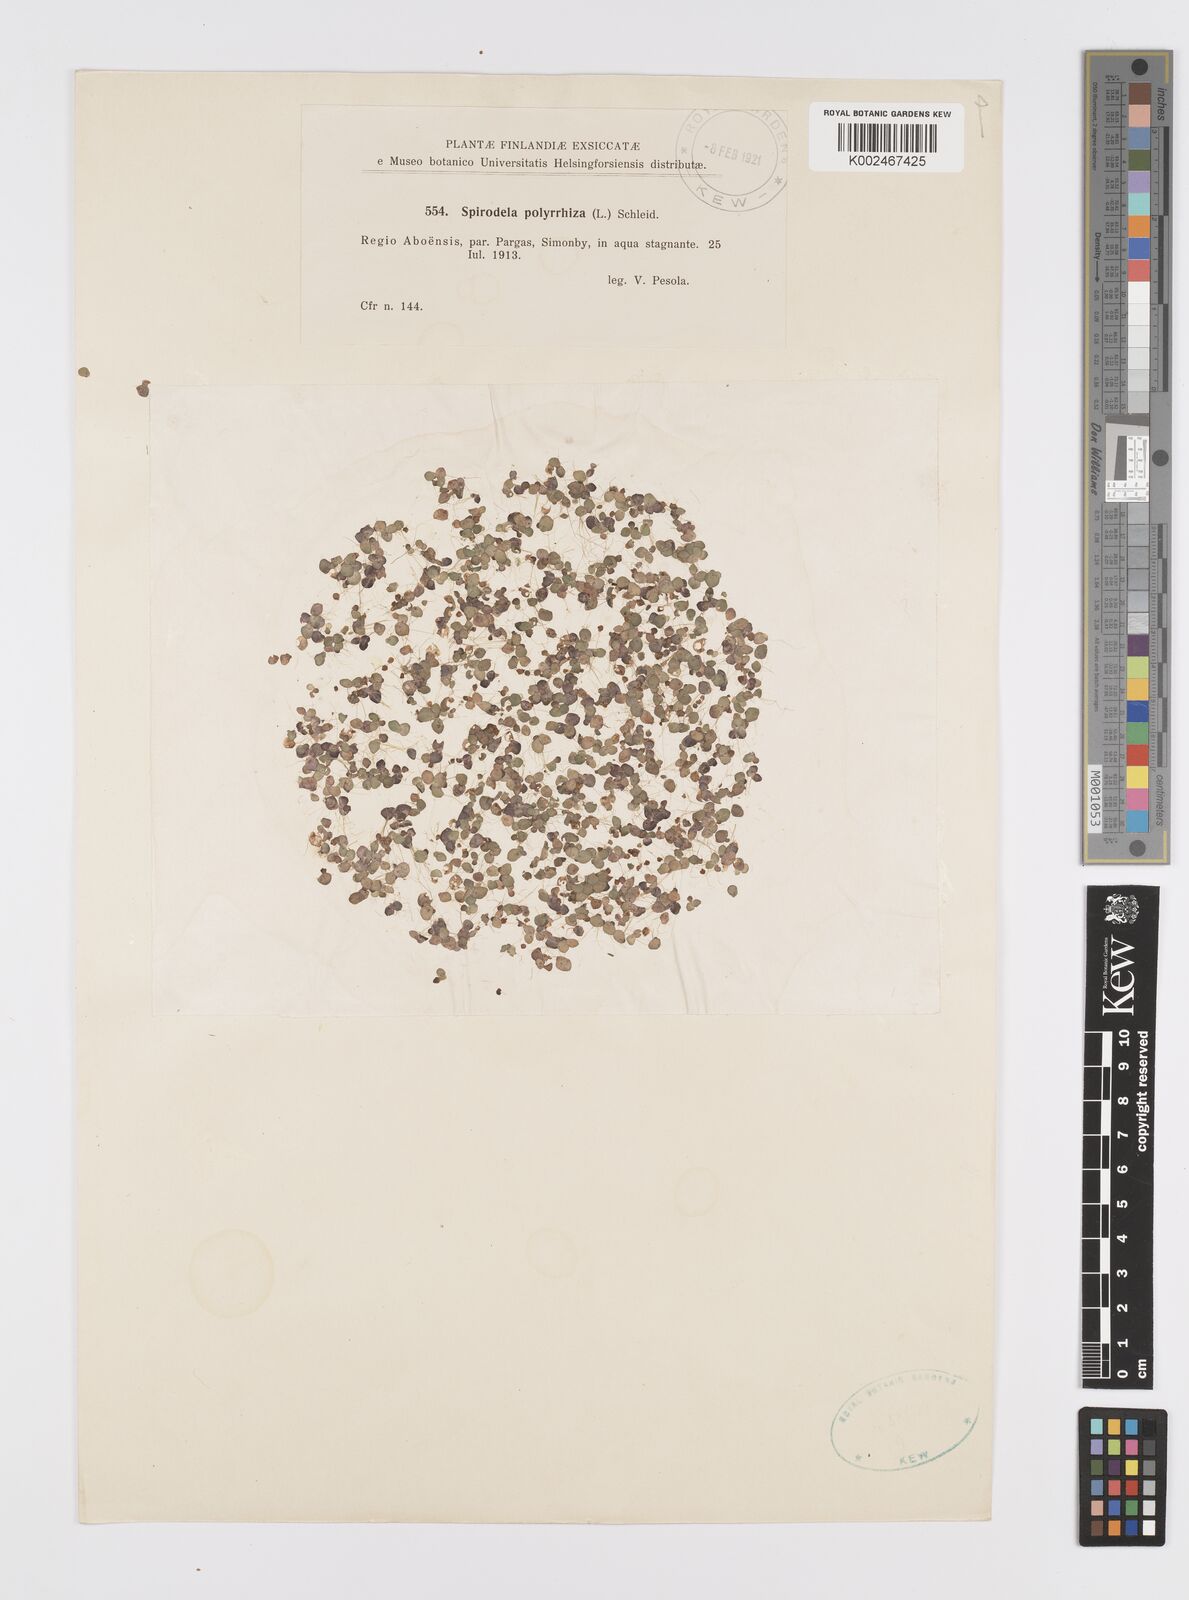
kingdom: Plantae
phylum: Tracheophyta
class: Liliopsida
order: Alismatales
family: Araceae
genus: Spirodela
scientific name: Spirodela polyrhiza
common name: Great duckweed
